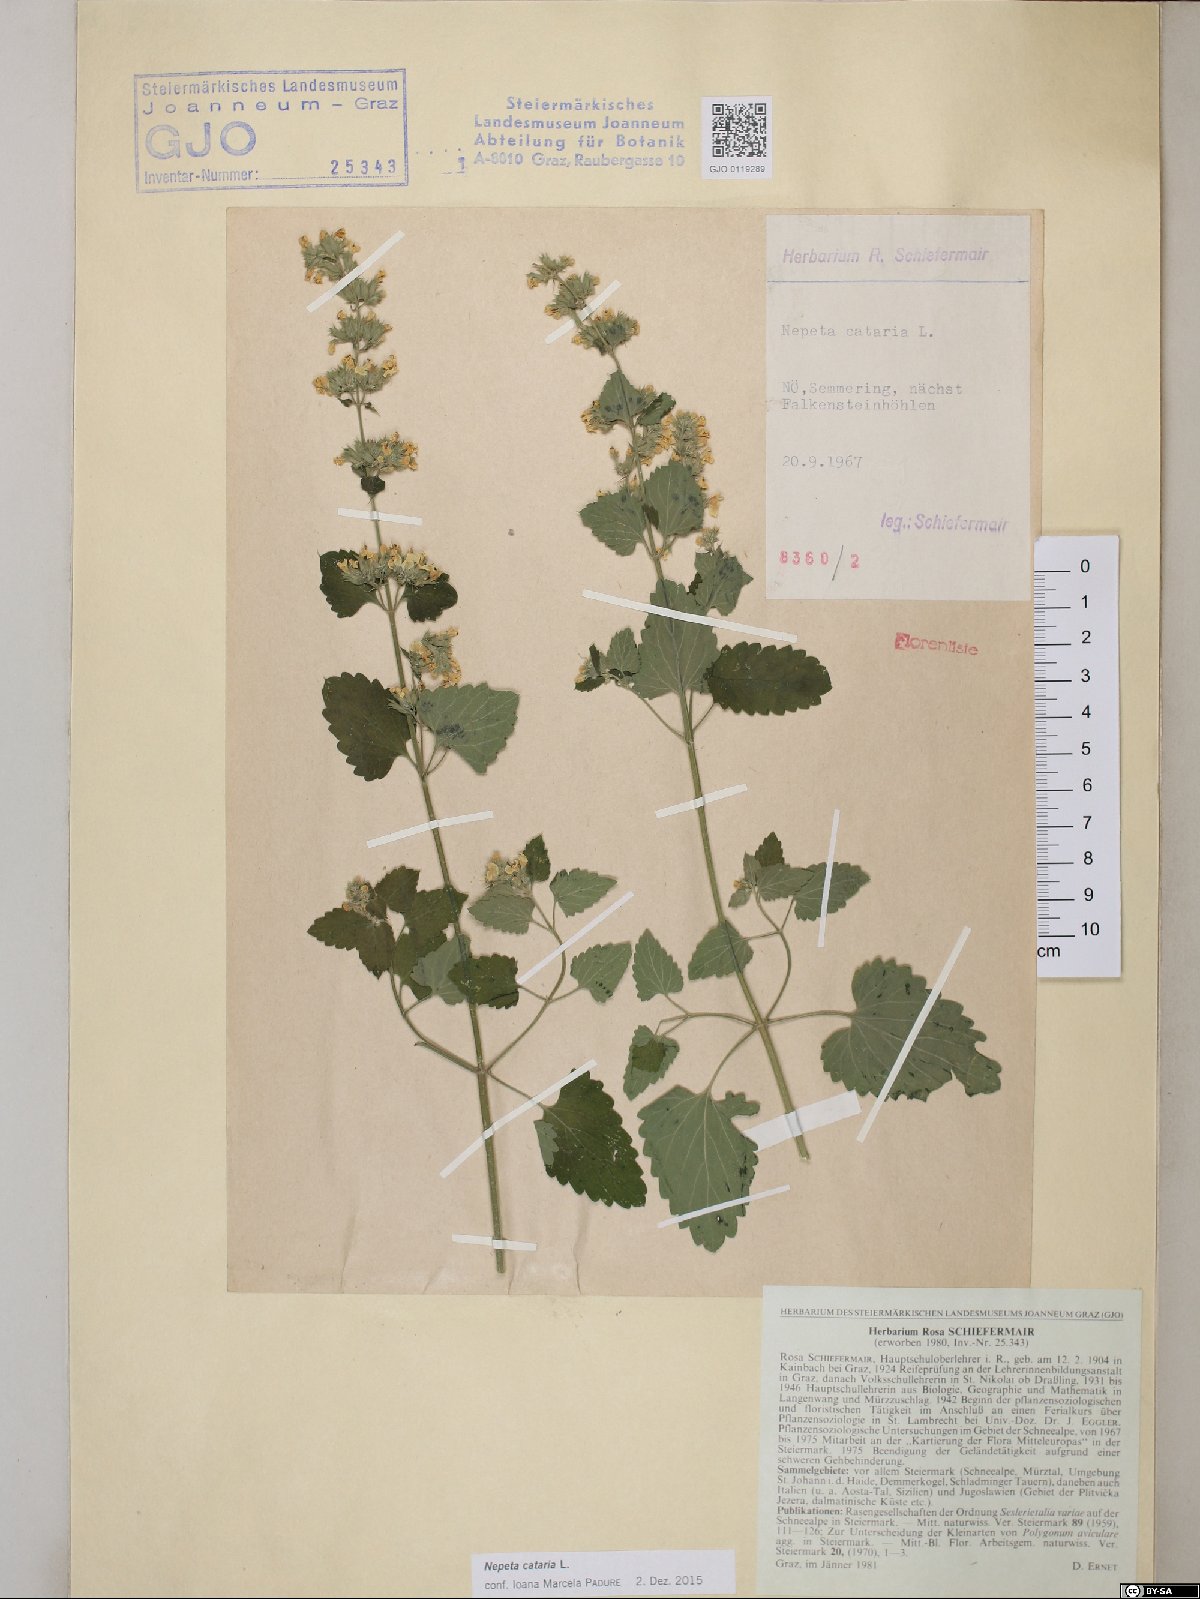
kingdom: Plantae
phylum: Tracheophyta
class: Magnoliopsida
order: Lamiales
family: Lamiaceae
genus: Nepeta
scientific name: Nepeta cataria
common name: Catnip
